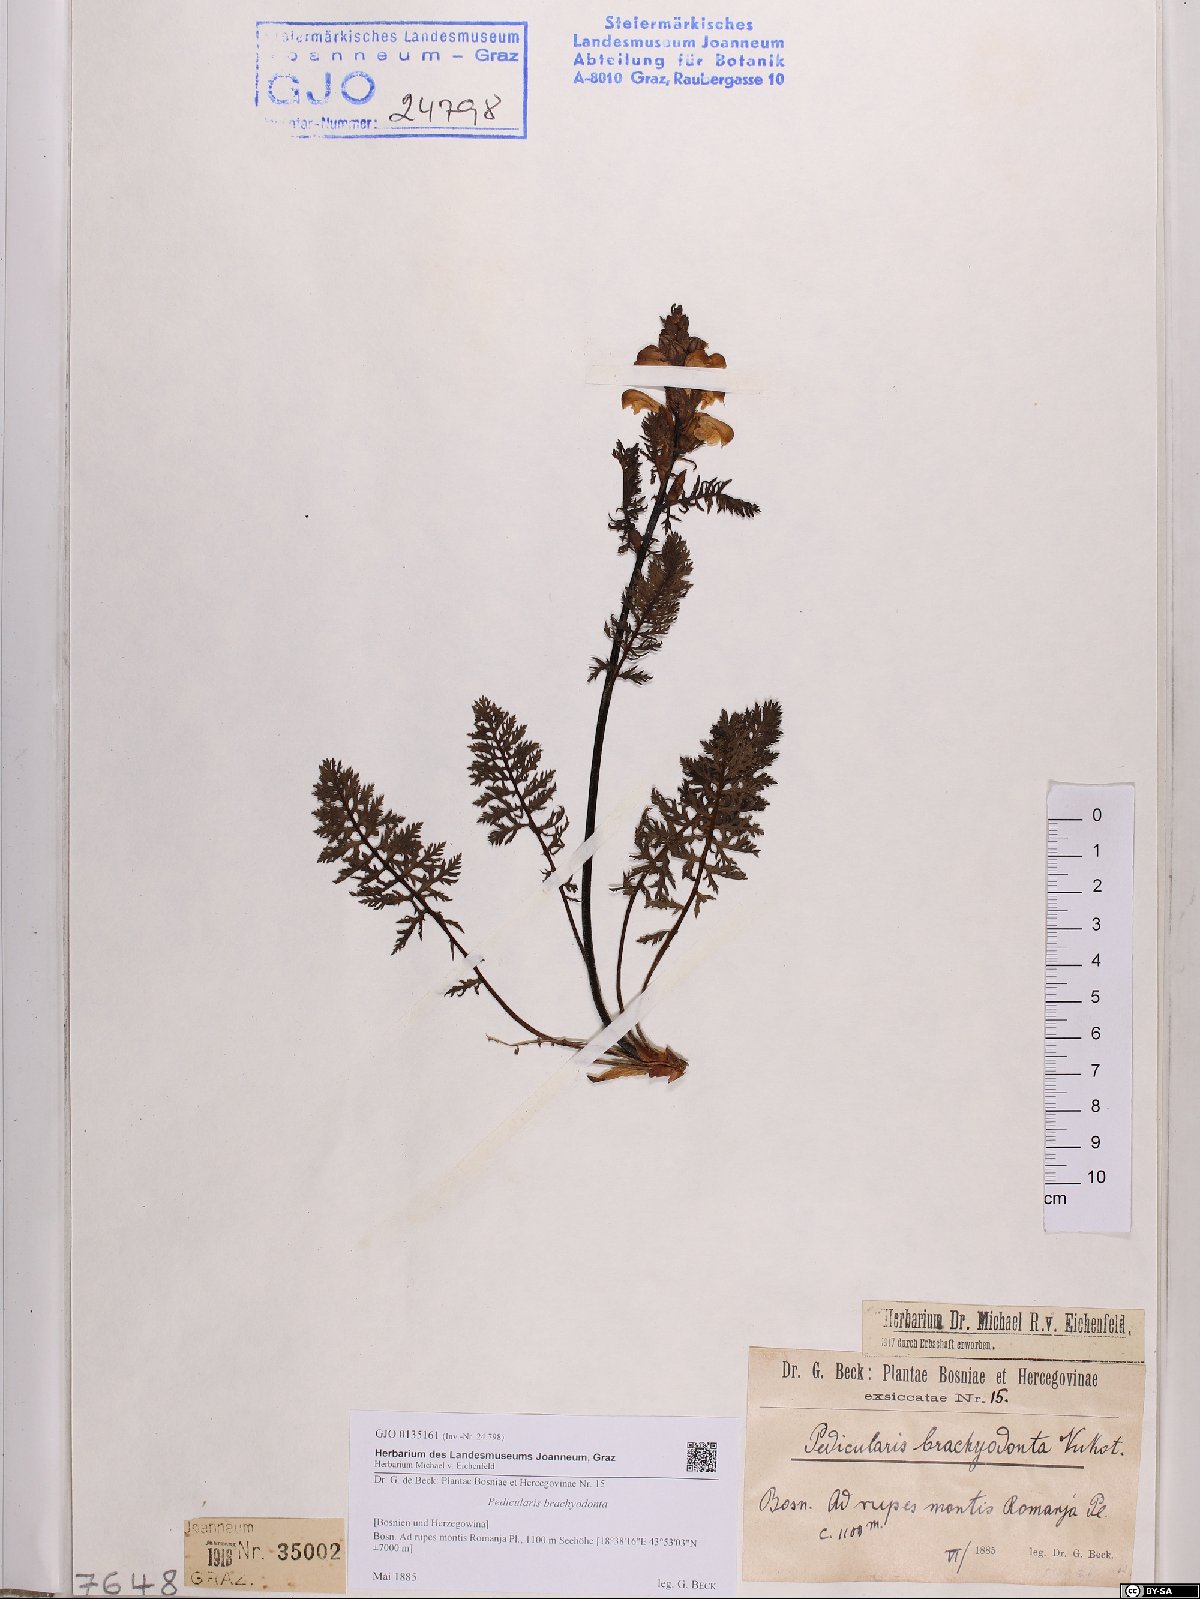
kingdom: Plantae
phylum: Tracheophyta
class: Magnoliopsida
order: Lamiales
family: Orobanchaceae
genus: Pedicularis
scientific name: Pedicularis brachyodonta
